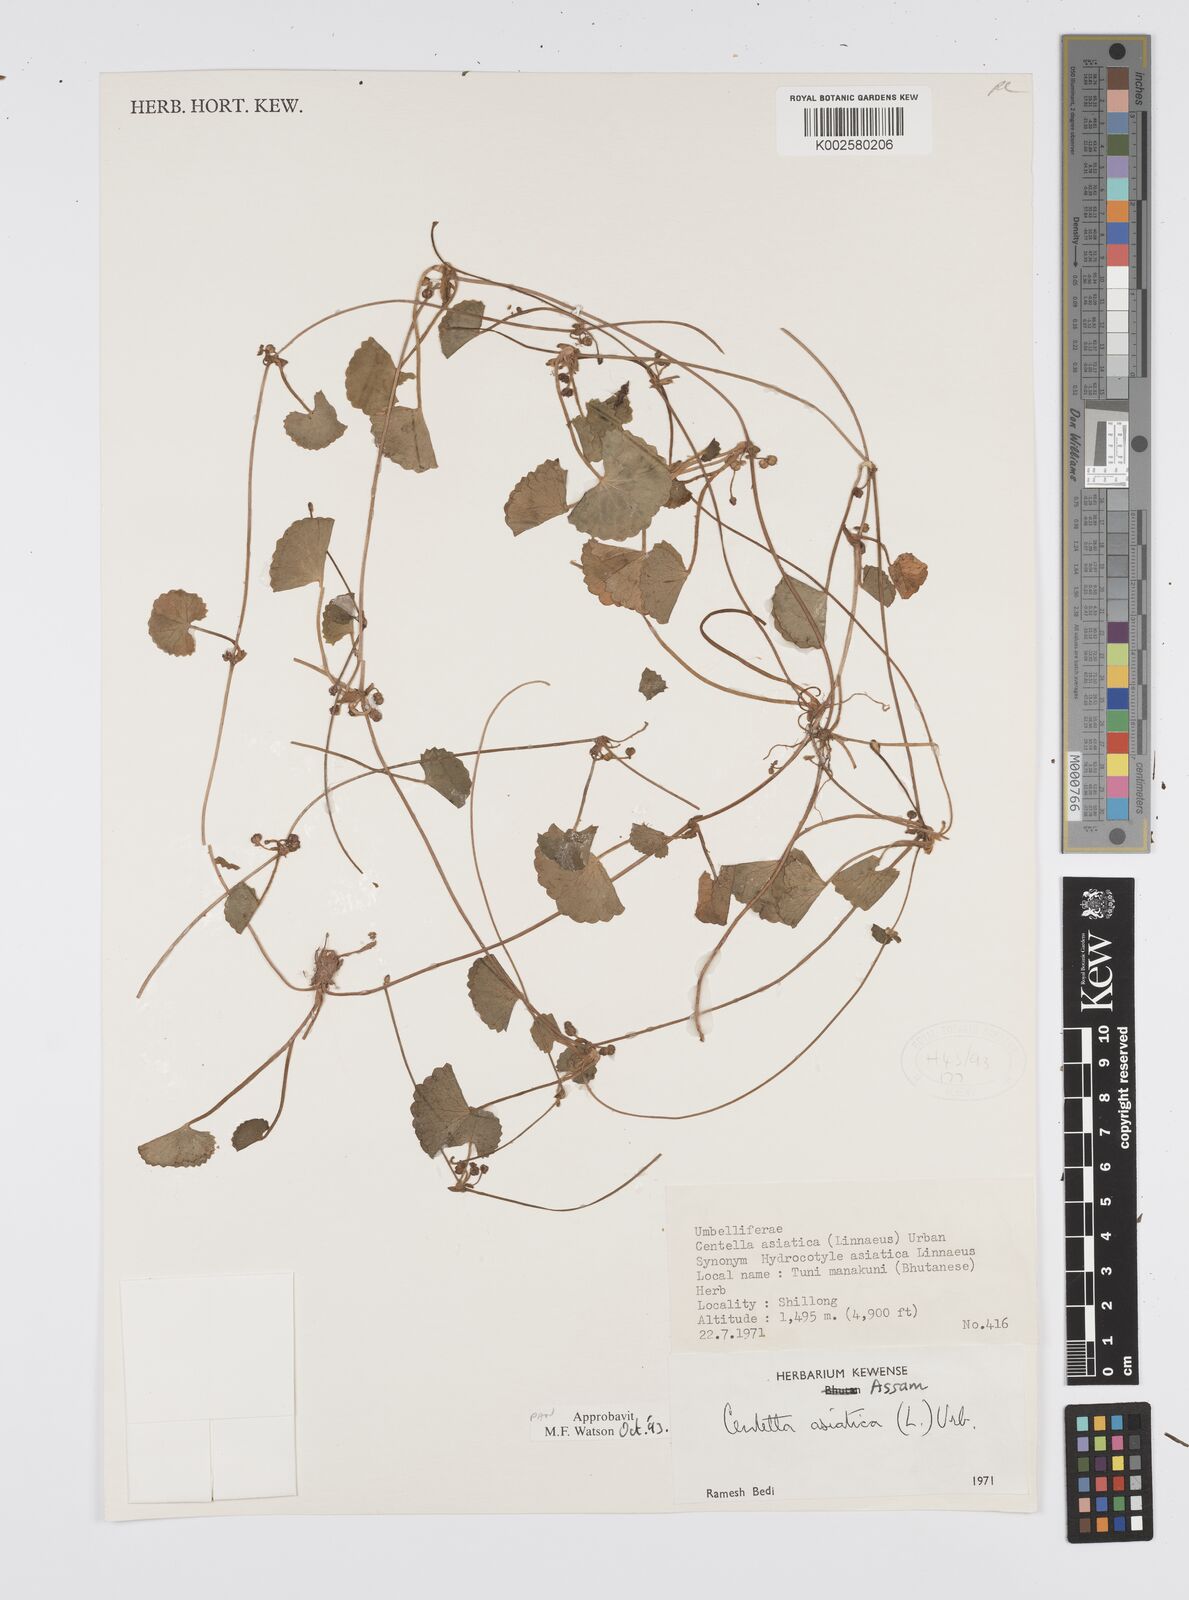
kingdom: Plantae
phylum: Tracheophyta
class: Magnoliopsida
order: Apiales
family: Apiaceae
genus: Centella
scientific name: Centella asiatica
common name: Spadeleaf
